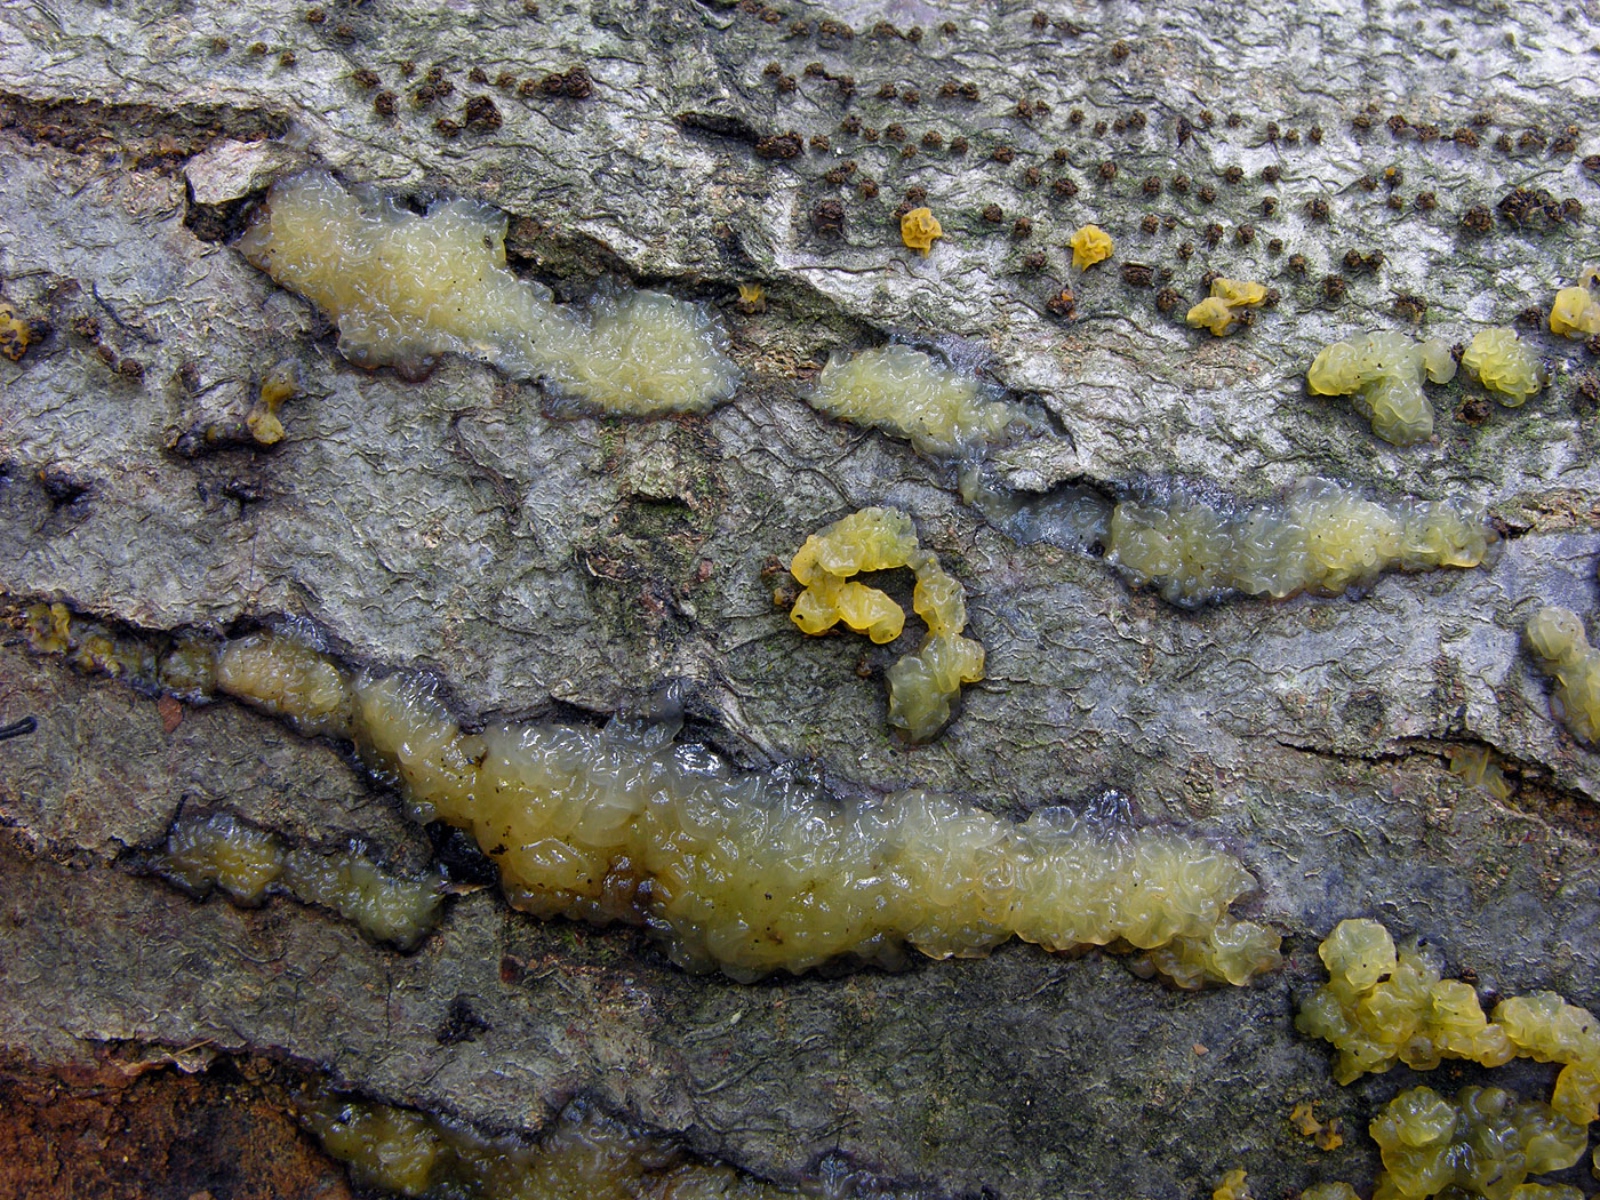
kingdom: Fungi
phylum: Basidiomycota
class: Tremellomycetes
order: Tremellales
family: Tremellaceae
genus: Tremella
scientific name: Tremella
